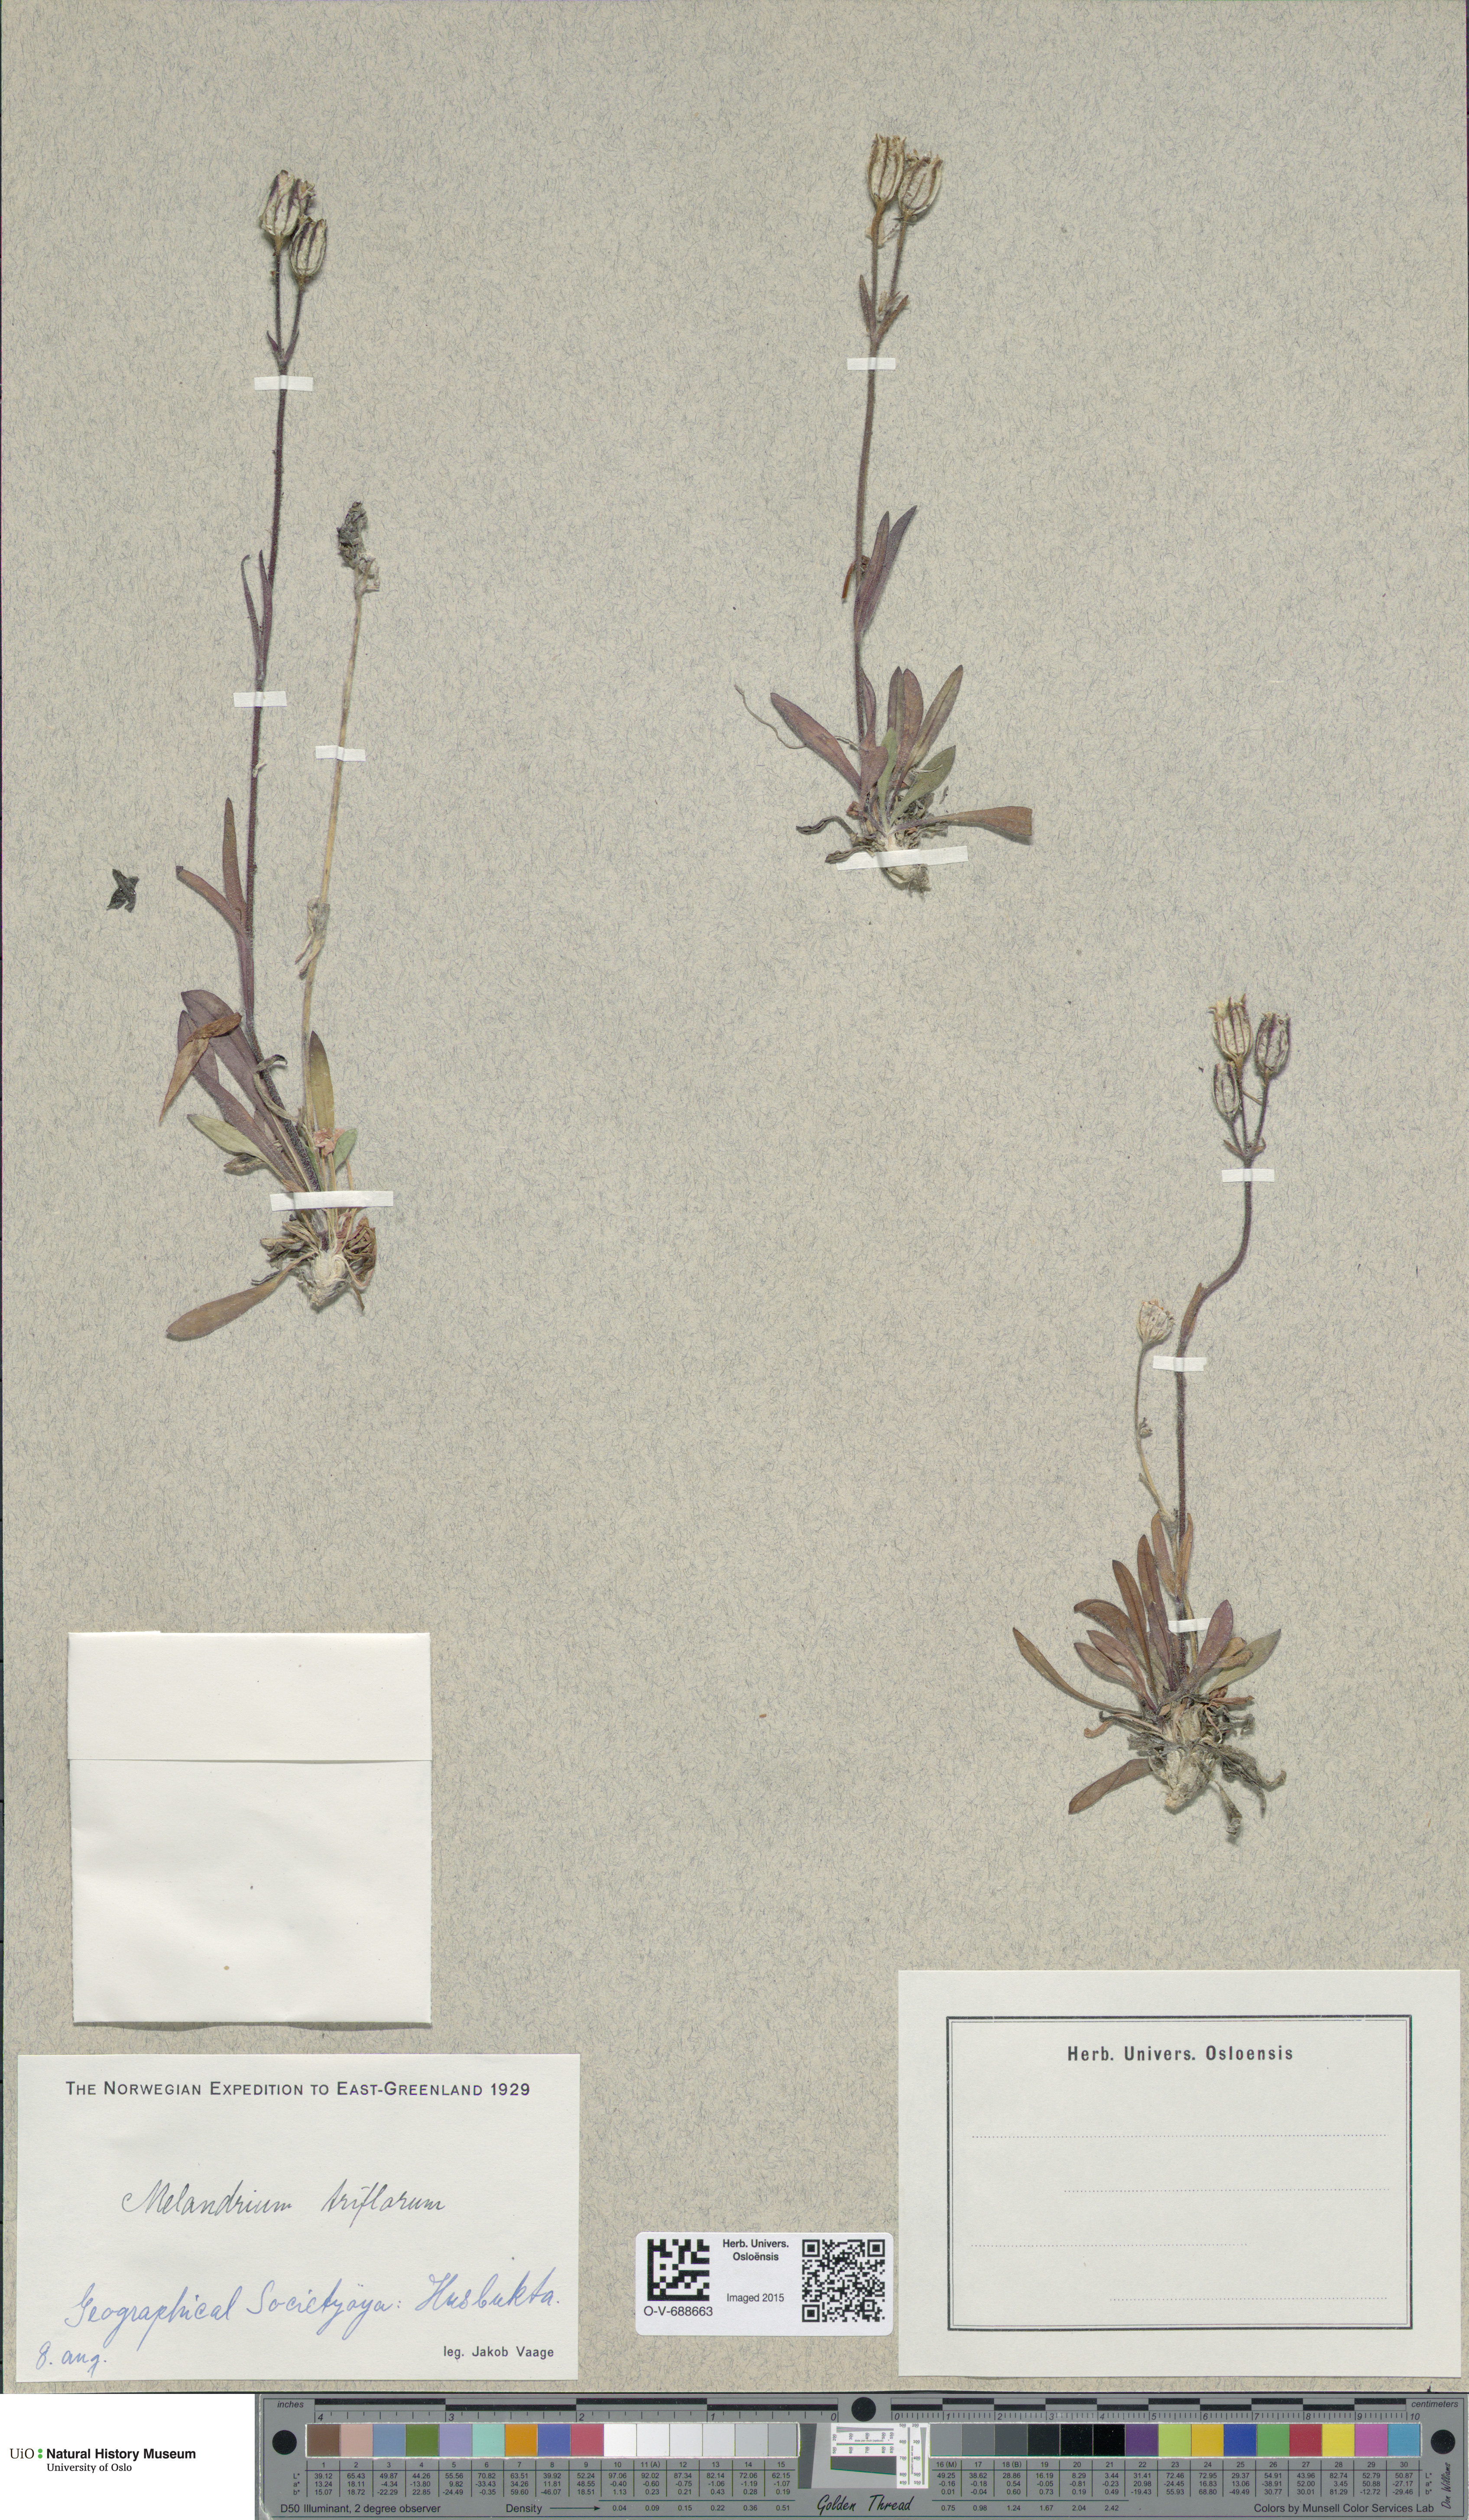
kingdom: Plantae
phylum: Tracheophyta
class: Magnoliopsida
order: Caryophyllales
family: Caryophyllaceae
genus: Silene
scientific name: Silene sorensenis
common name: Sorensen's campion
